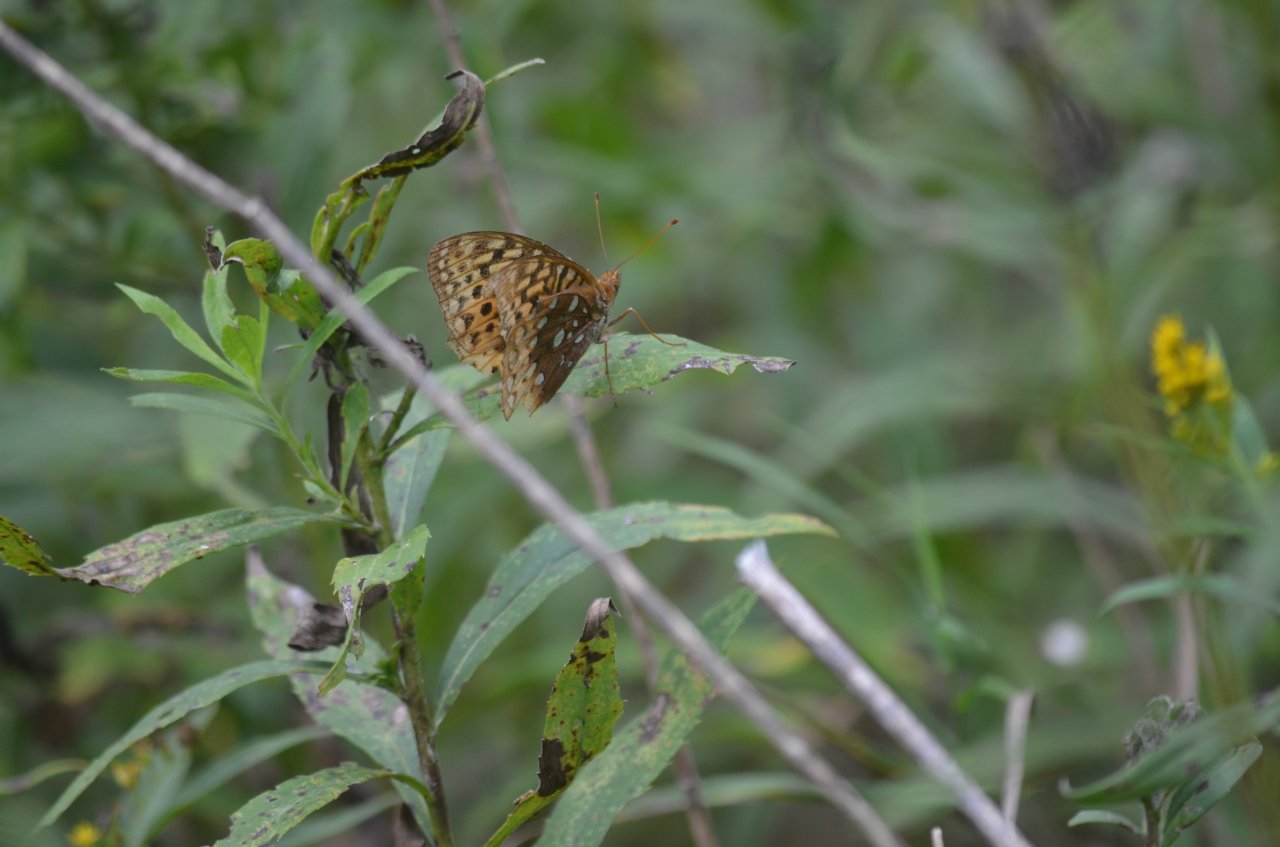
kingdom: Animalia
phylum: Arthropoda
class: Insecta
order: Lepidoptera
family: Nymphalidae
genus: Speyeria
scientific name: Speyeria cybele
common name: Great Spangled Fritillary
